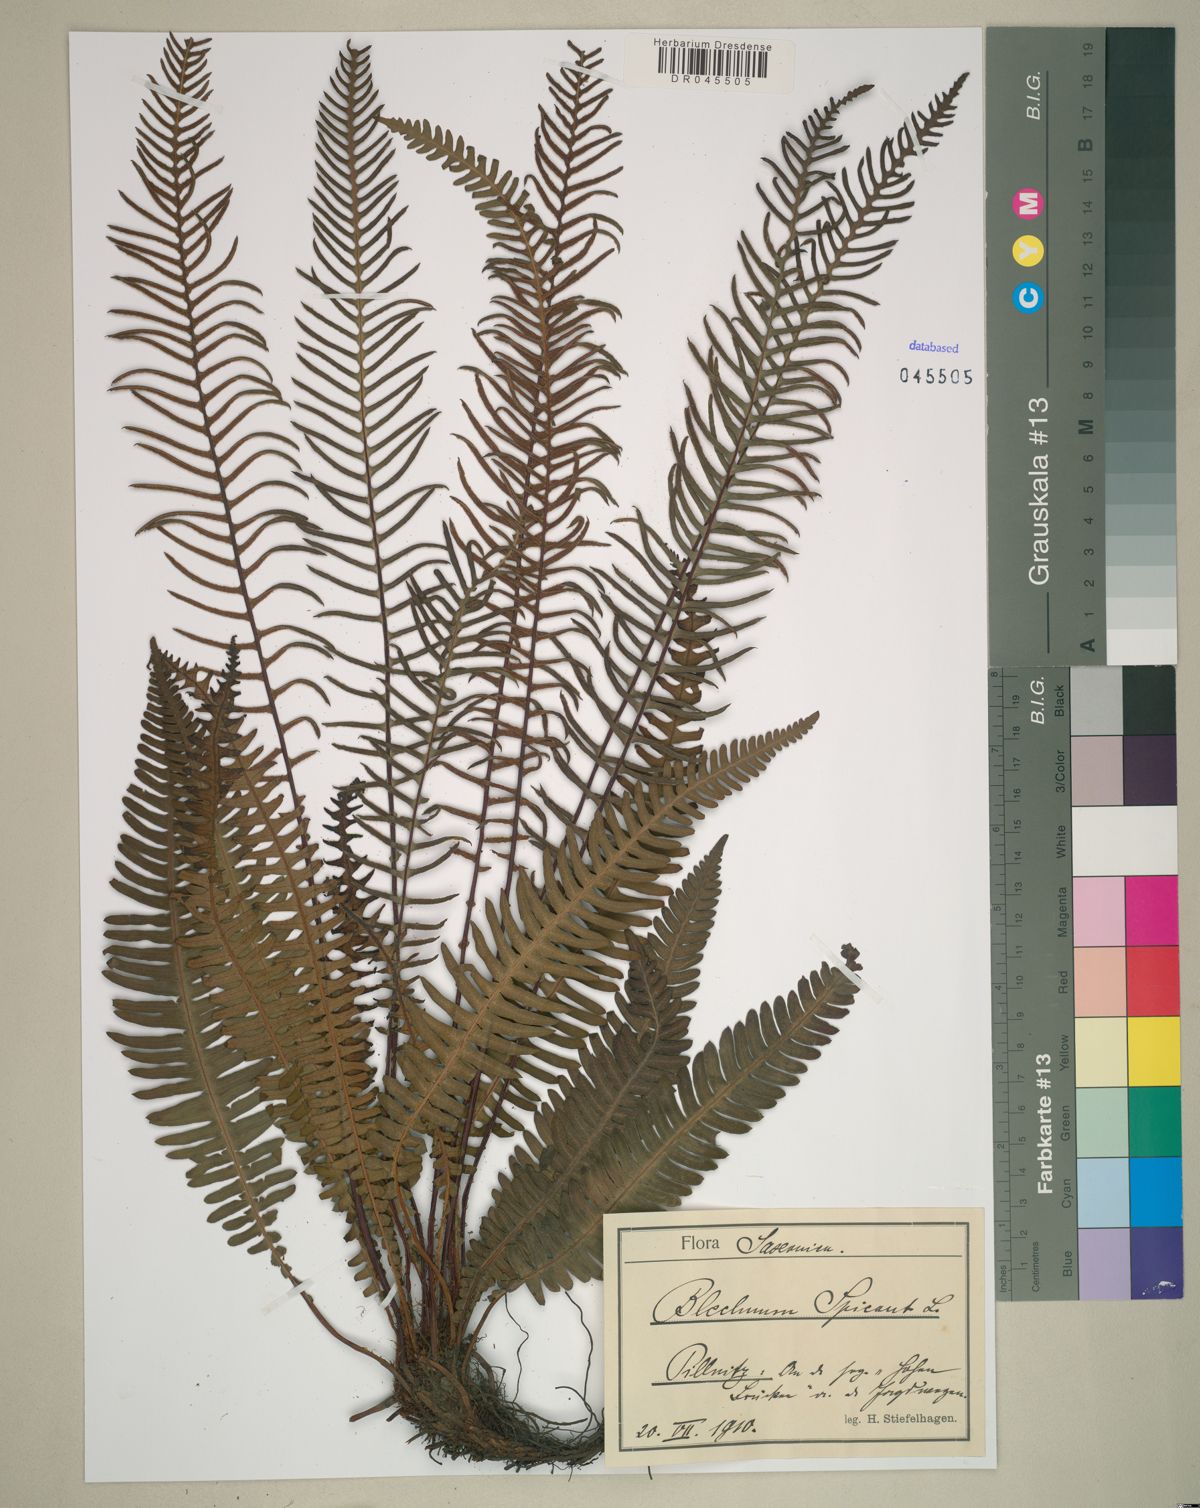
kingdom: Plantae
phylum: Tracheophyta
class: Polypodiopsida
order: Polypodiales
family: Blechnaceae
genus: Struthiopteris
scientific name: Struthiopteris spicant
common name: Deer fern
